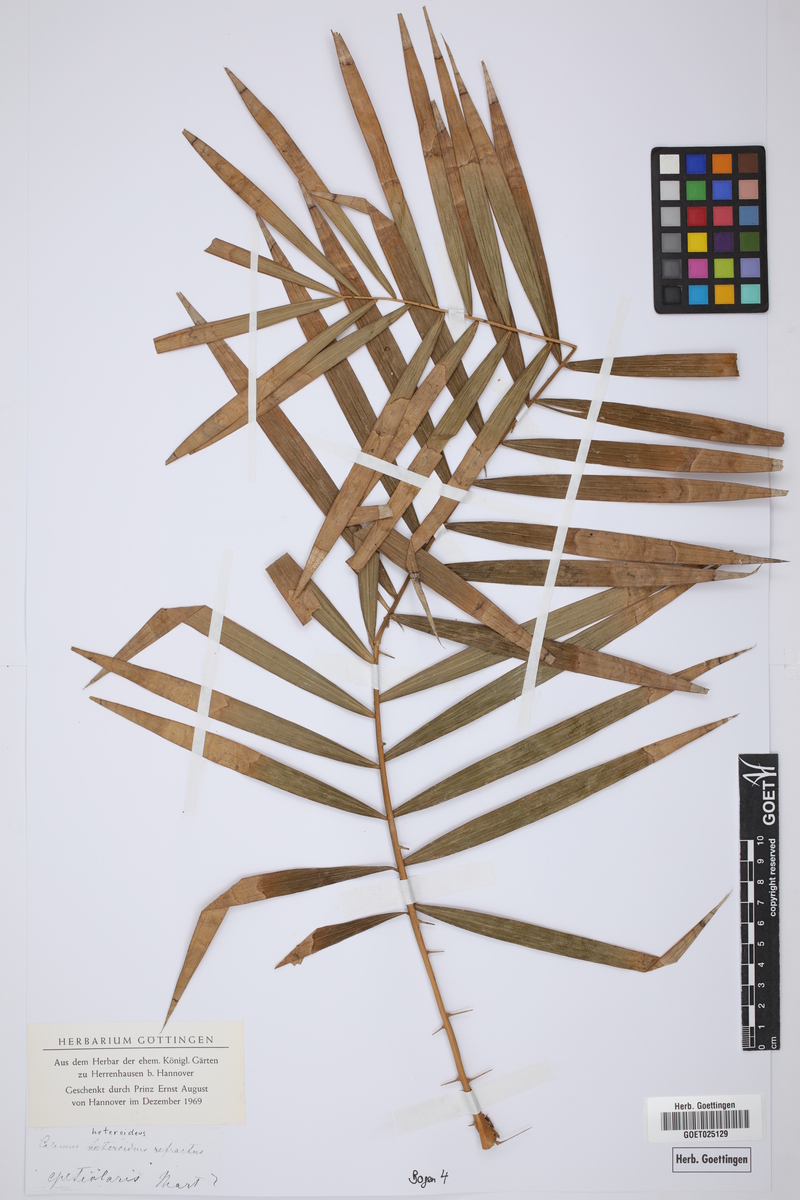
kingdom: Plantae
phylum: Tracheophyta
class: Liliopsida
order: Arecales
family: Arecaceae
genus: Calamus
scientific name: Calamus heteroideus
